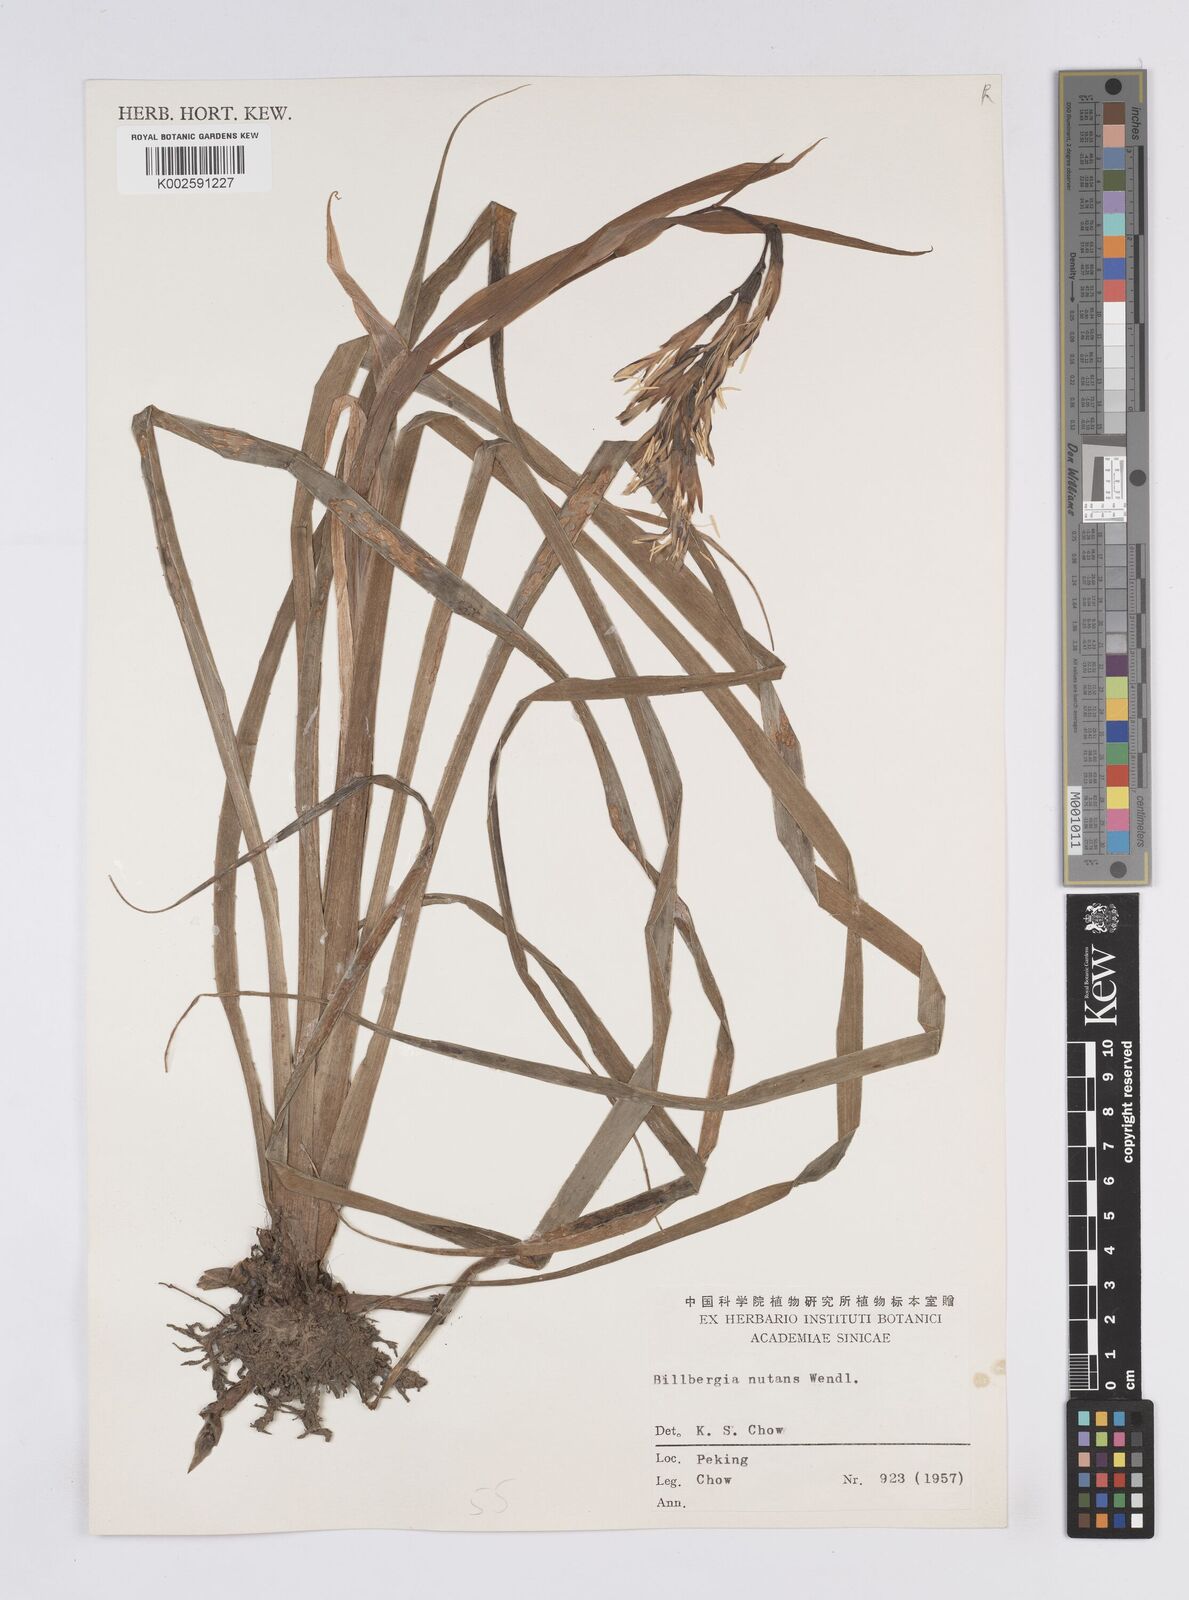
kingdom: Plantae
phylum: Tracheophyta
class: Liliopsida
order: Poales
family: Bromeliaceae
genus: Billbergia
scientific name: Billbergia nutans
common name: Friendship-plant
